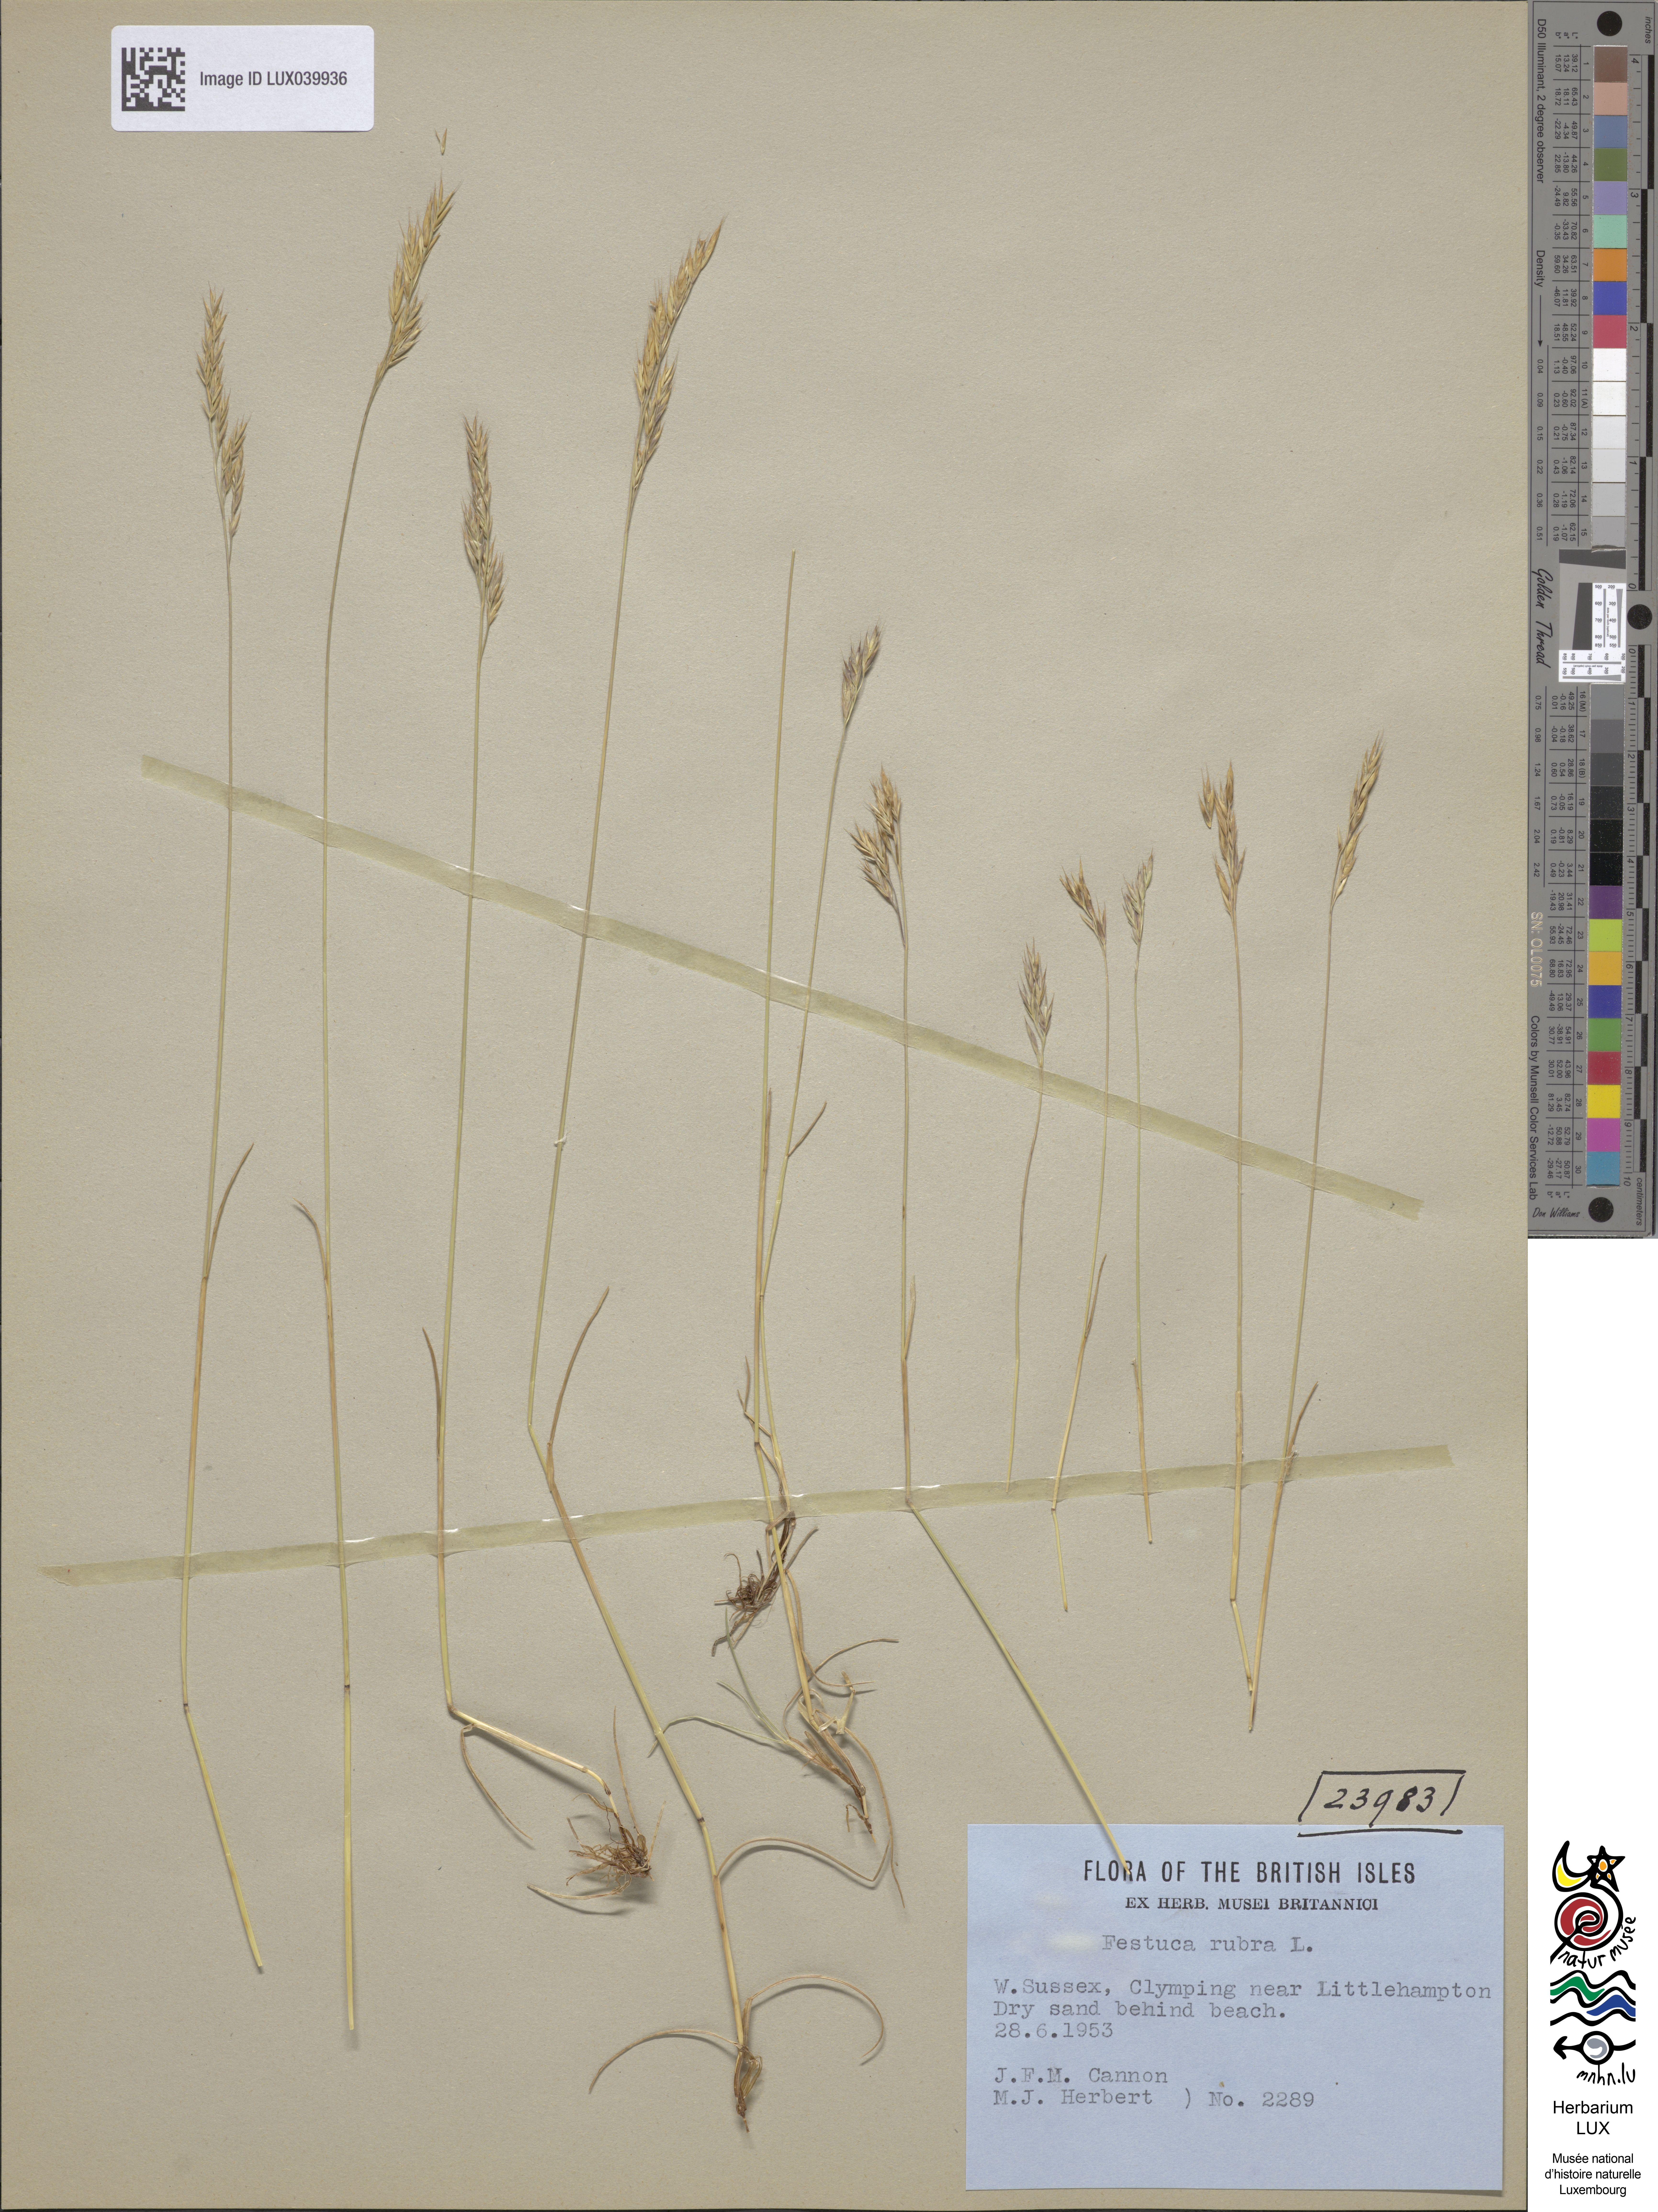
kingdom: Plantae
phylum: Tracheophyta
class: Liliopsida
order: Poales
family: Poaceae
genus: Festuca
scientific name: Festuca rubra
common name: Red fescue
